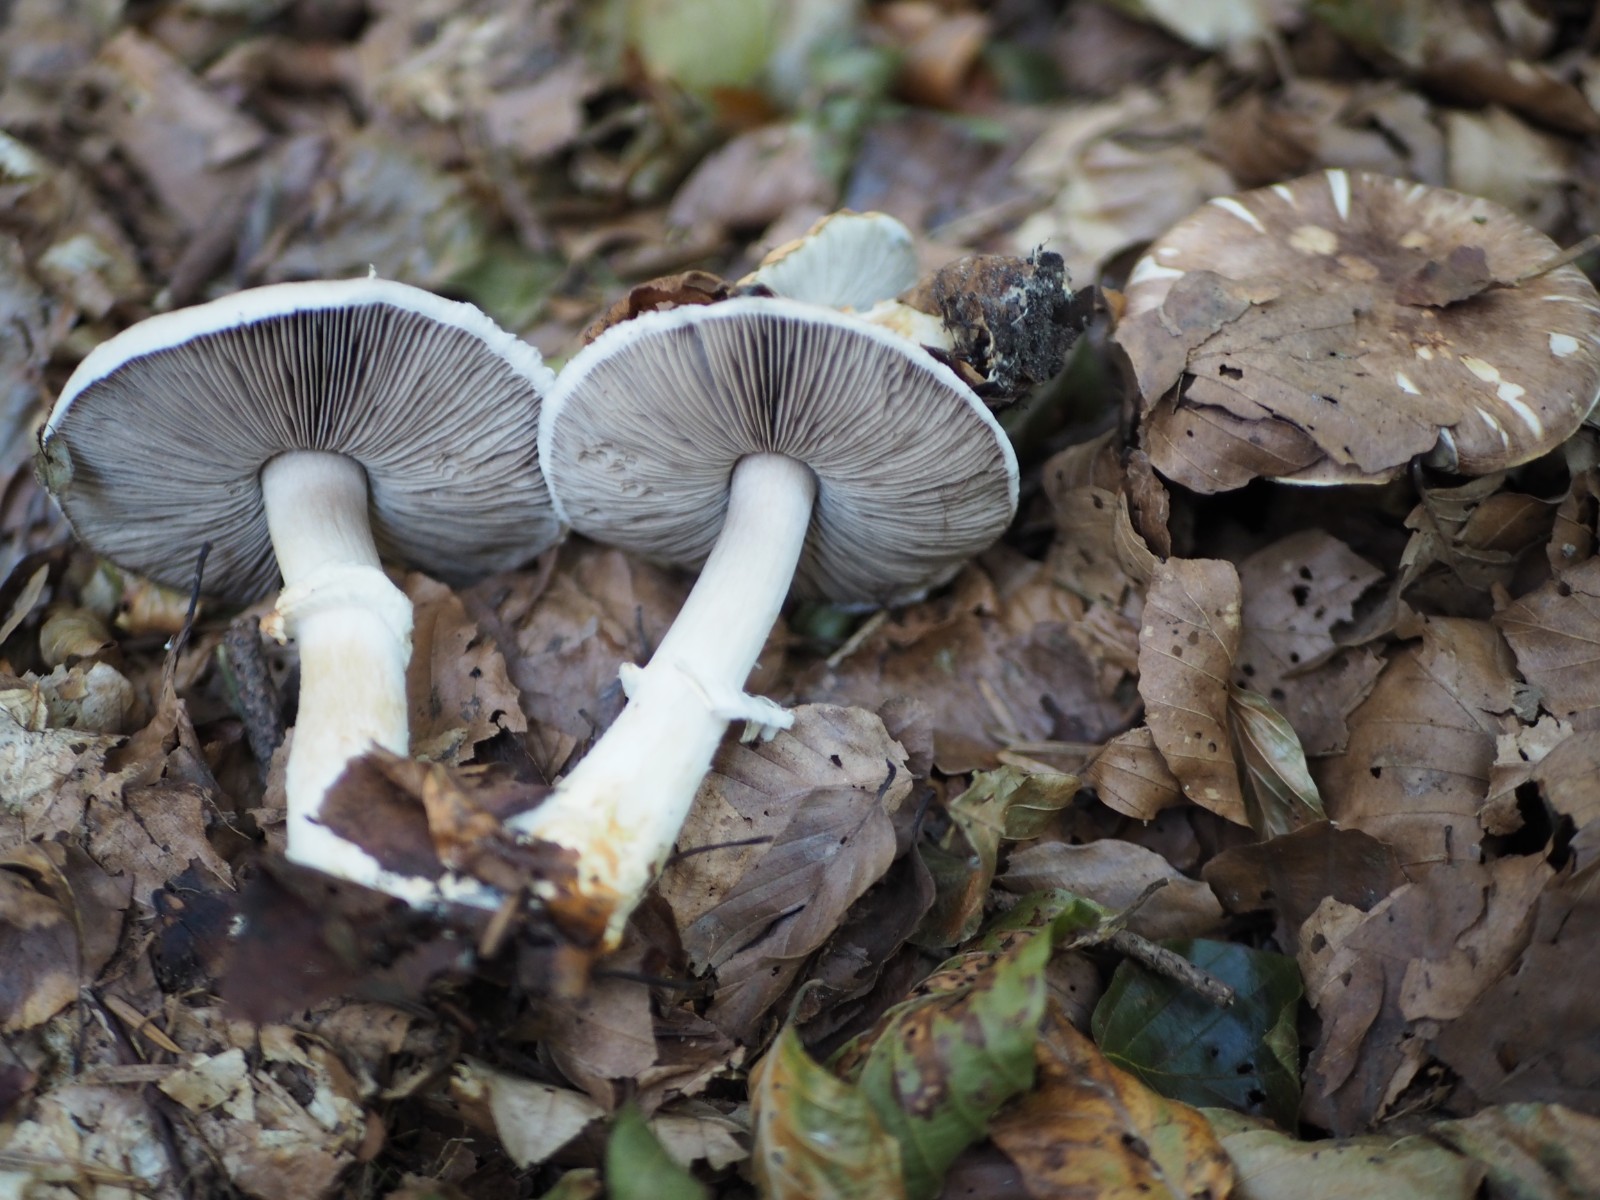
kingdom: Fungi
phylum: Basidiomycota
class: Agaricomycetes
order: Agaricales
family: Agaricaceae
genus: Agaricus
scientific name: Agaricus brunneolus
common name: purpur-champignon
